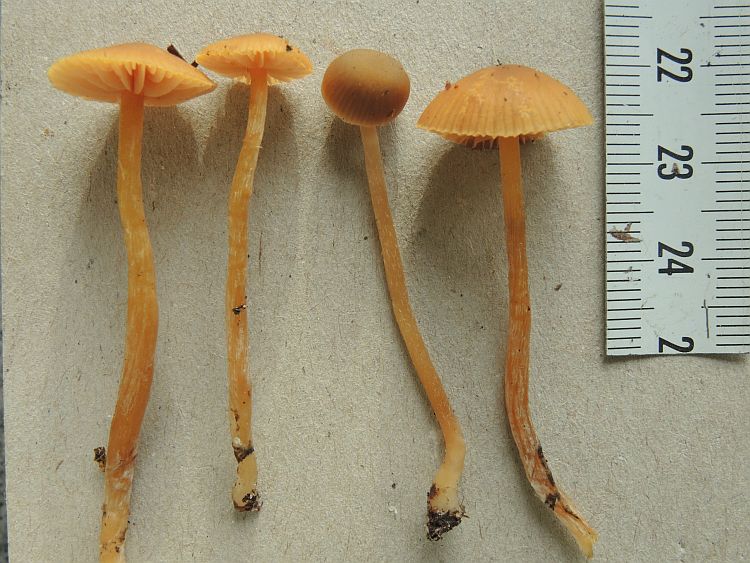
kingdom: Fungi
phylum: Basidiomycota
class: Agaricomycetes
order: Agaricales
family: Hymenogastraceae
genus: Galerina
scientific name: Galerina mniophila
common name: olivengul hjelmhat
